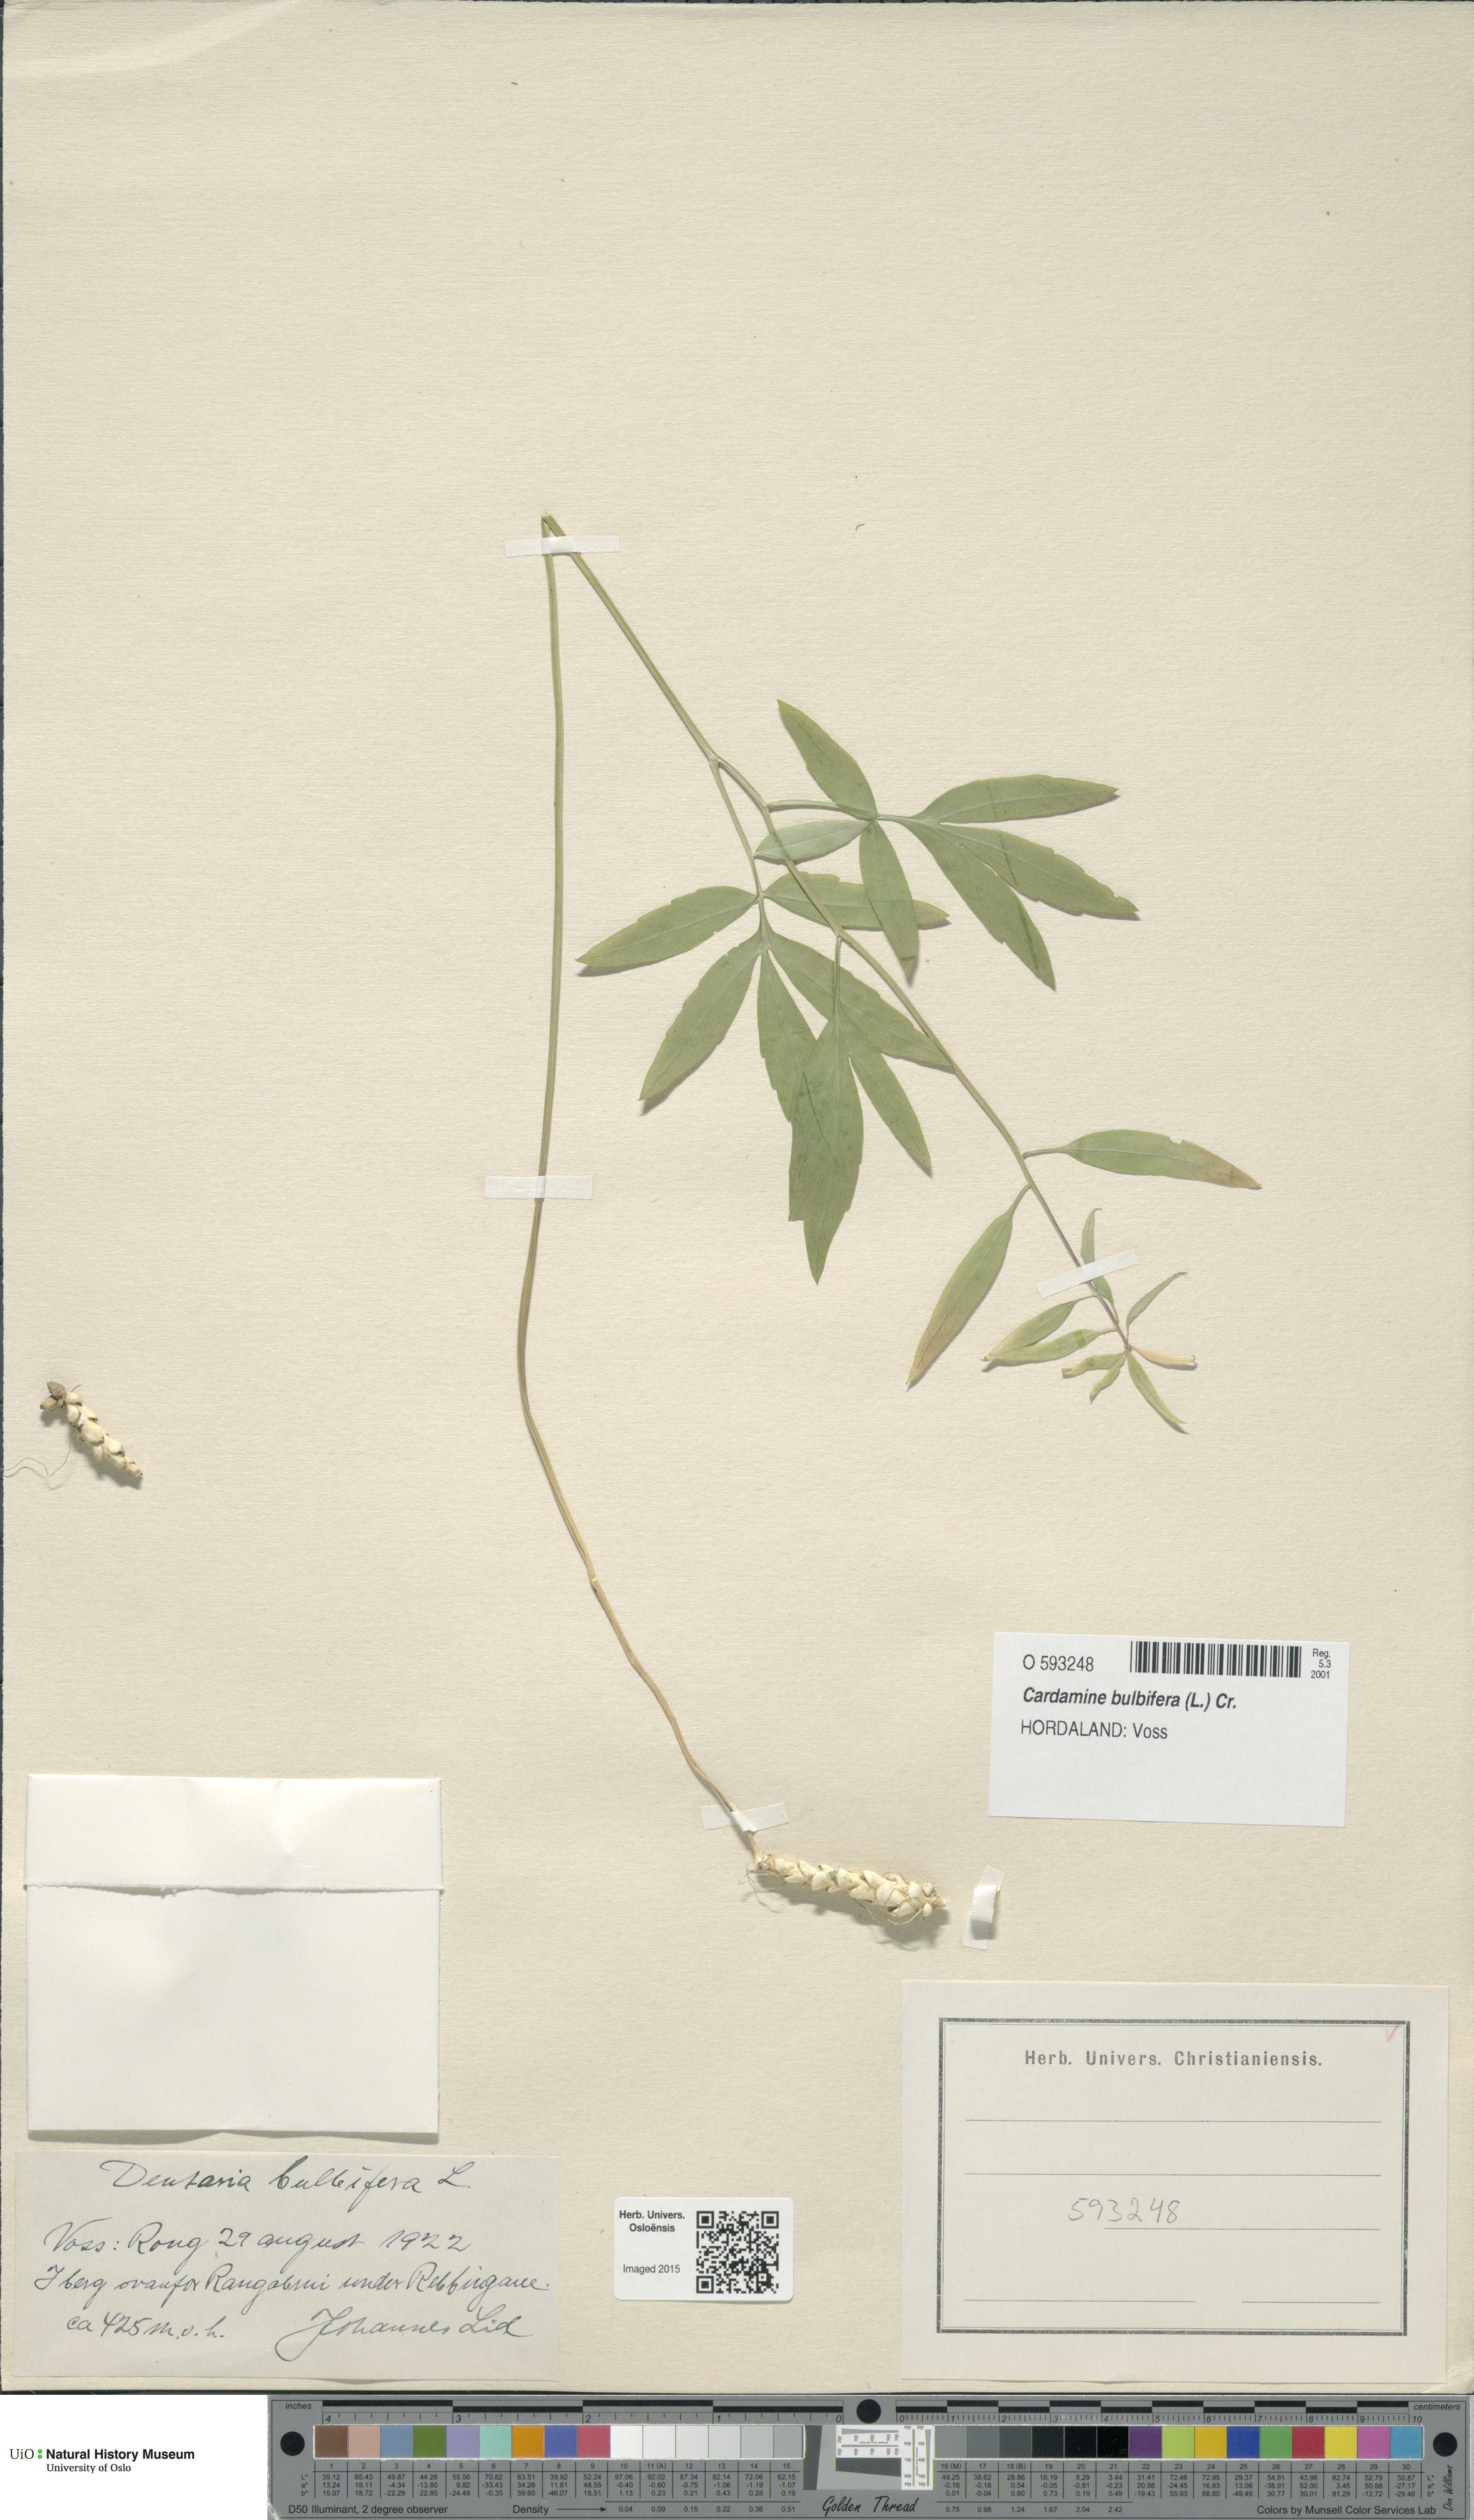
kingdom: Plantae
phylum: Tracheophyta
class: Magnoliopsida
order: Brassicales
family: Brassicaceae
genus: Cardamine
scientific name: Cardamine bulbifera
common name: Coralroot bittercress
